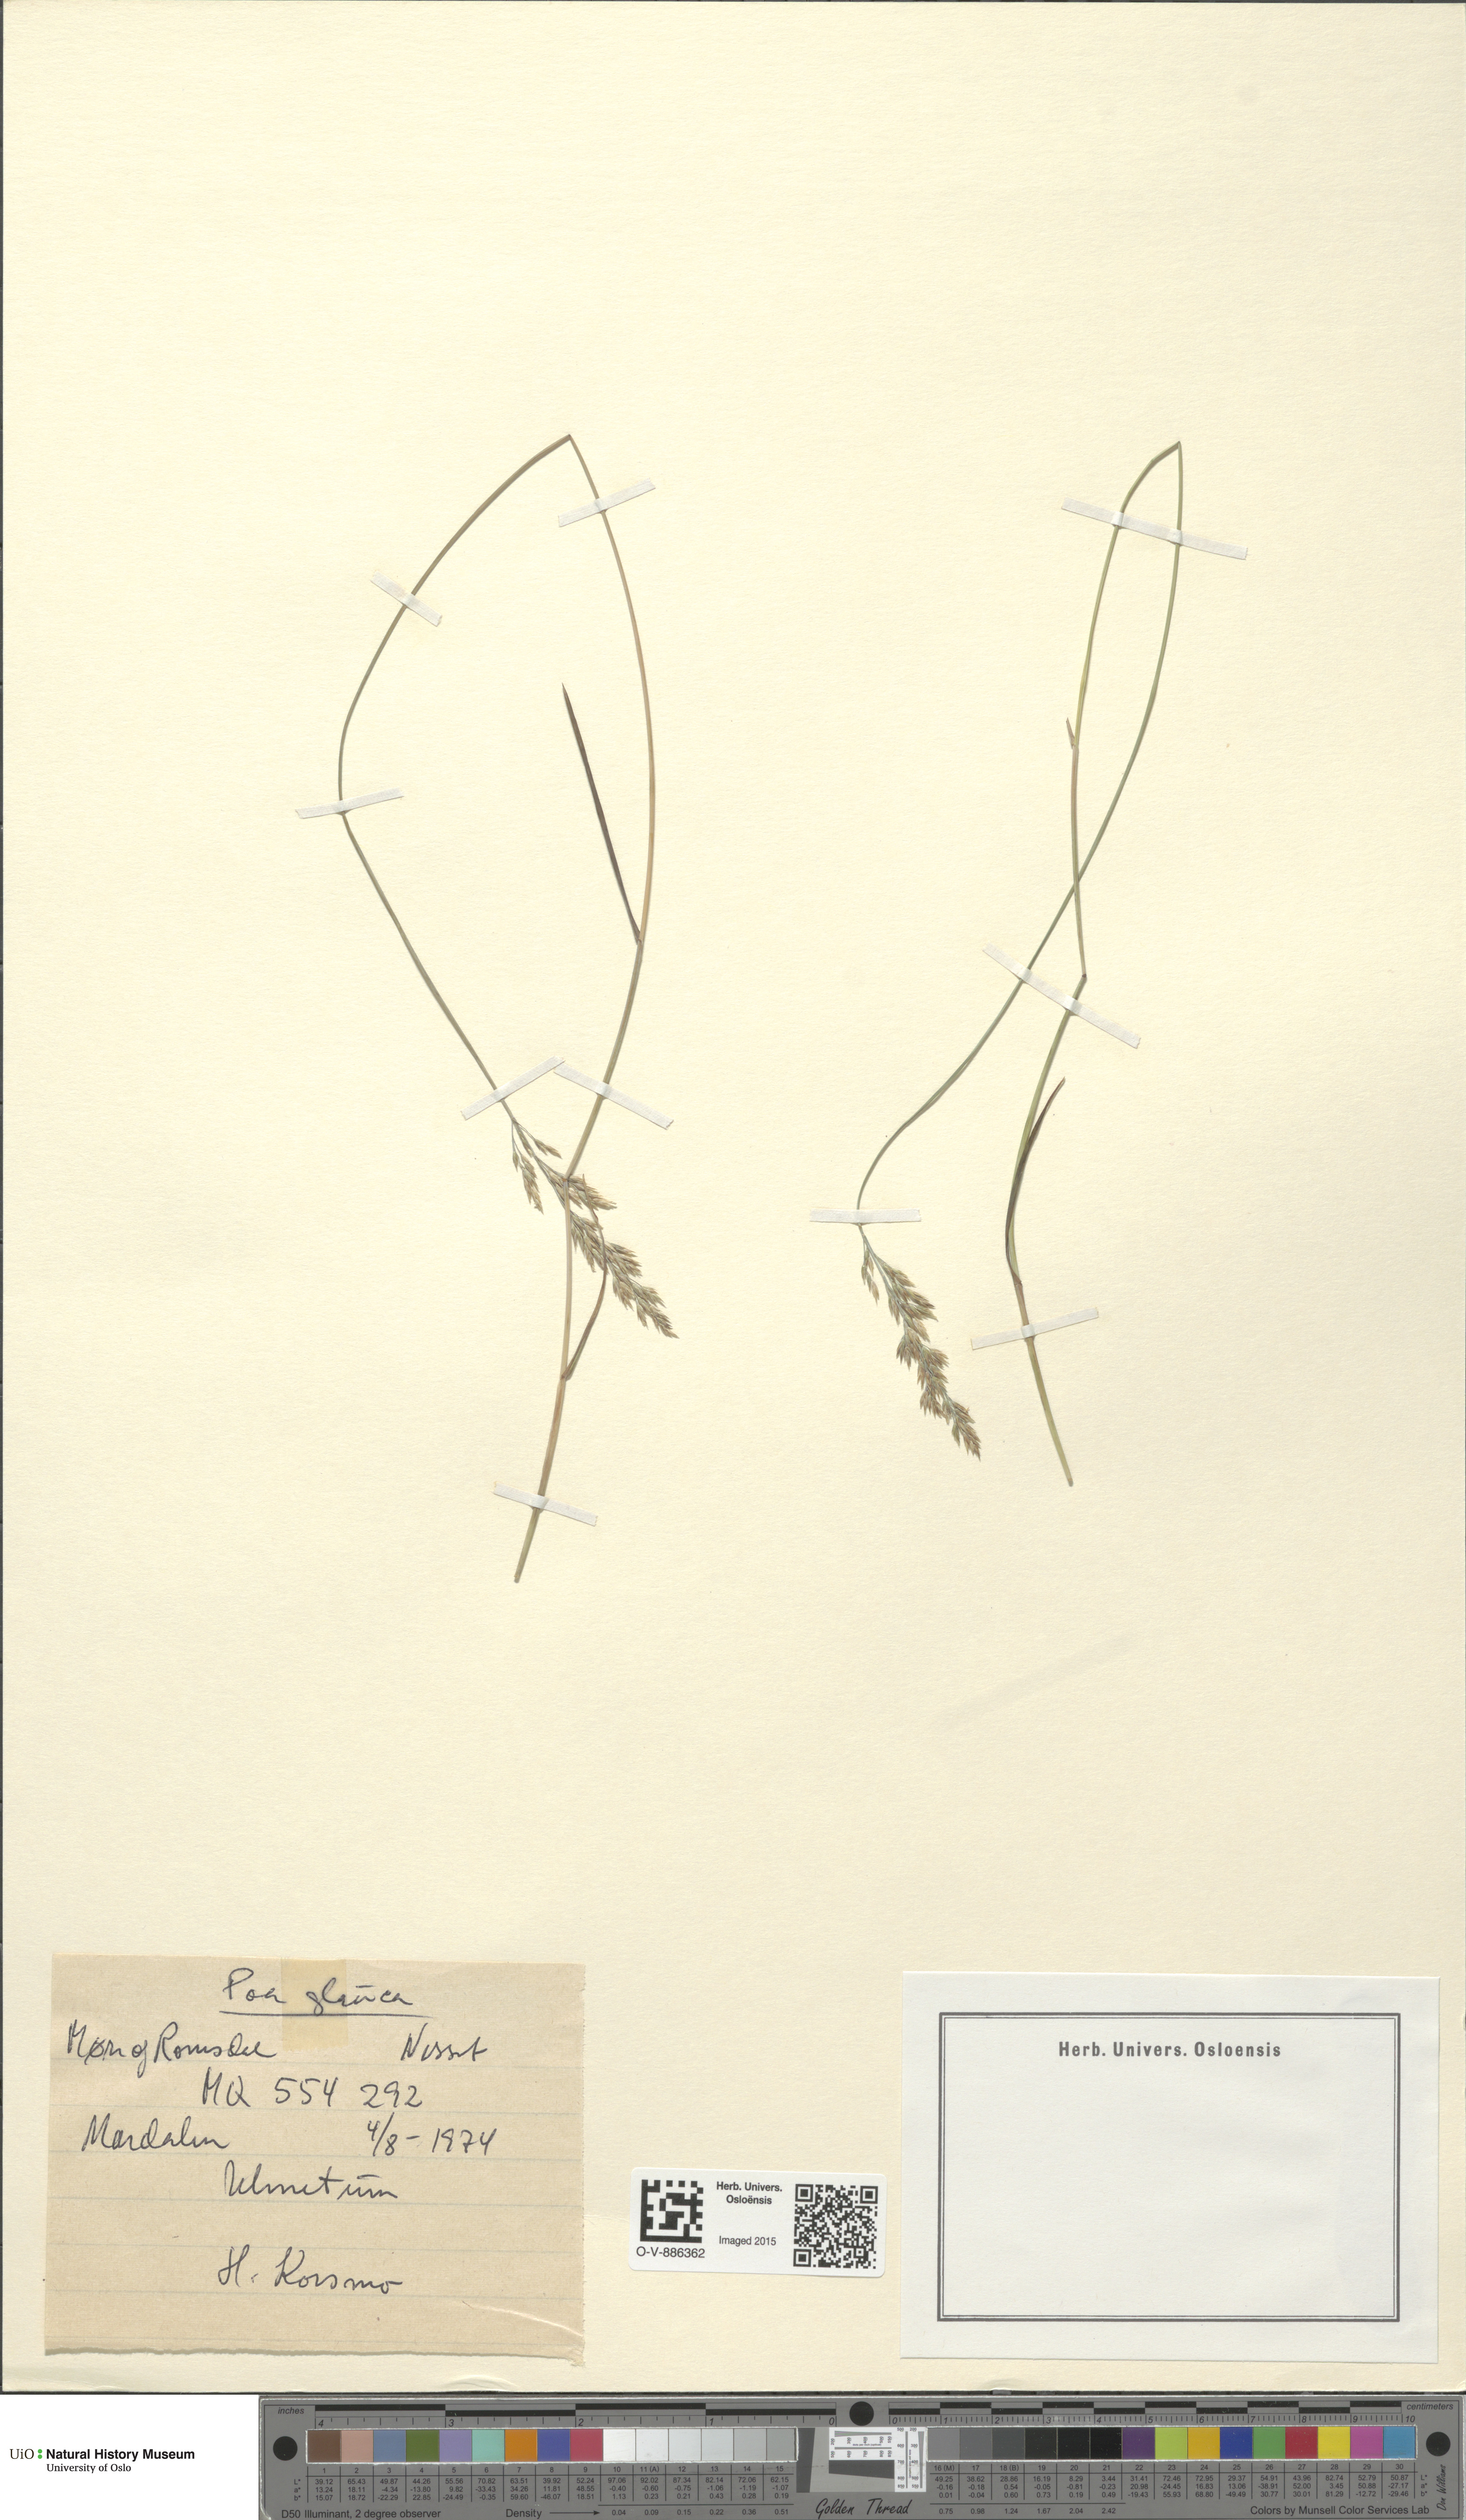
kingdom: Plantae
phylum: Tracheophyta
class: Liliopsida
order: Poales
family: Poaceae
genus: Poa
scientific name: Poa glauca
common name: Glaucous bluegrass
